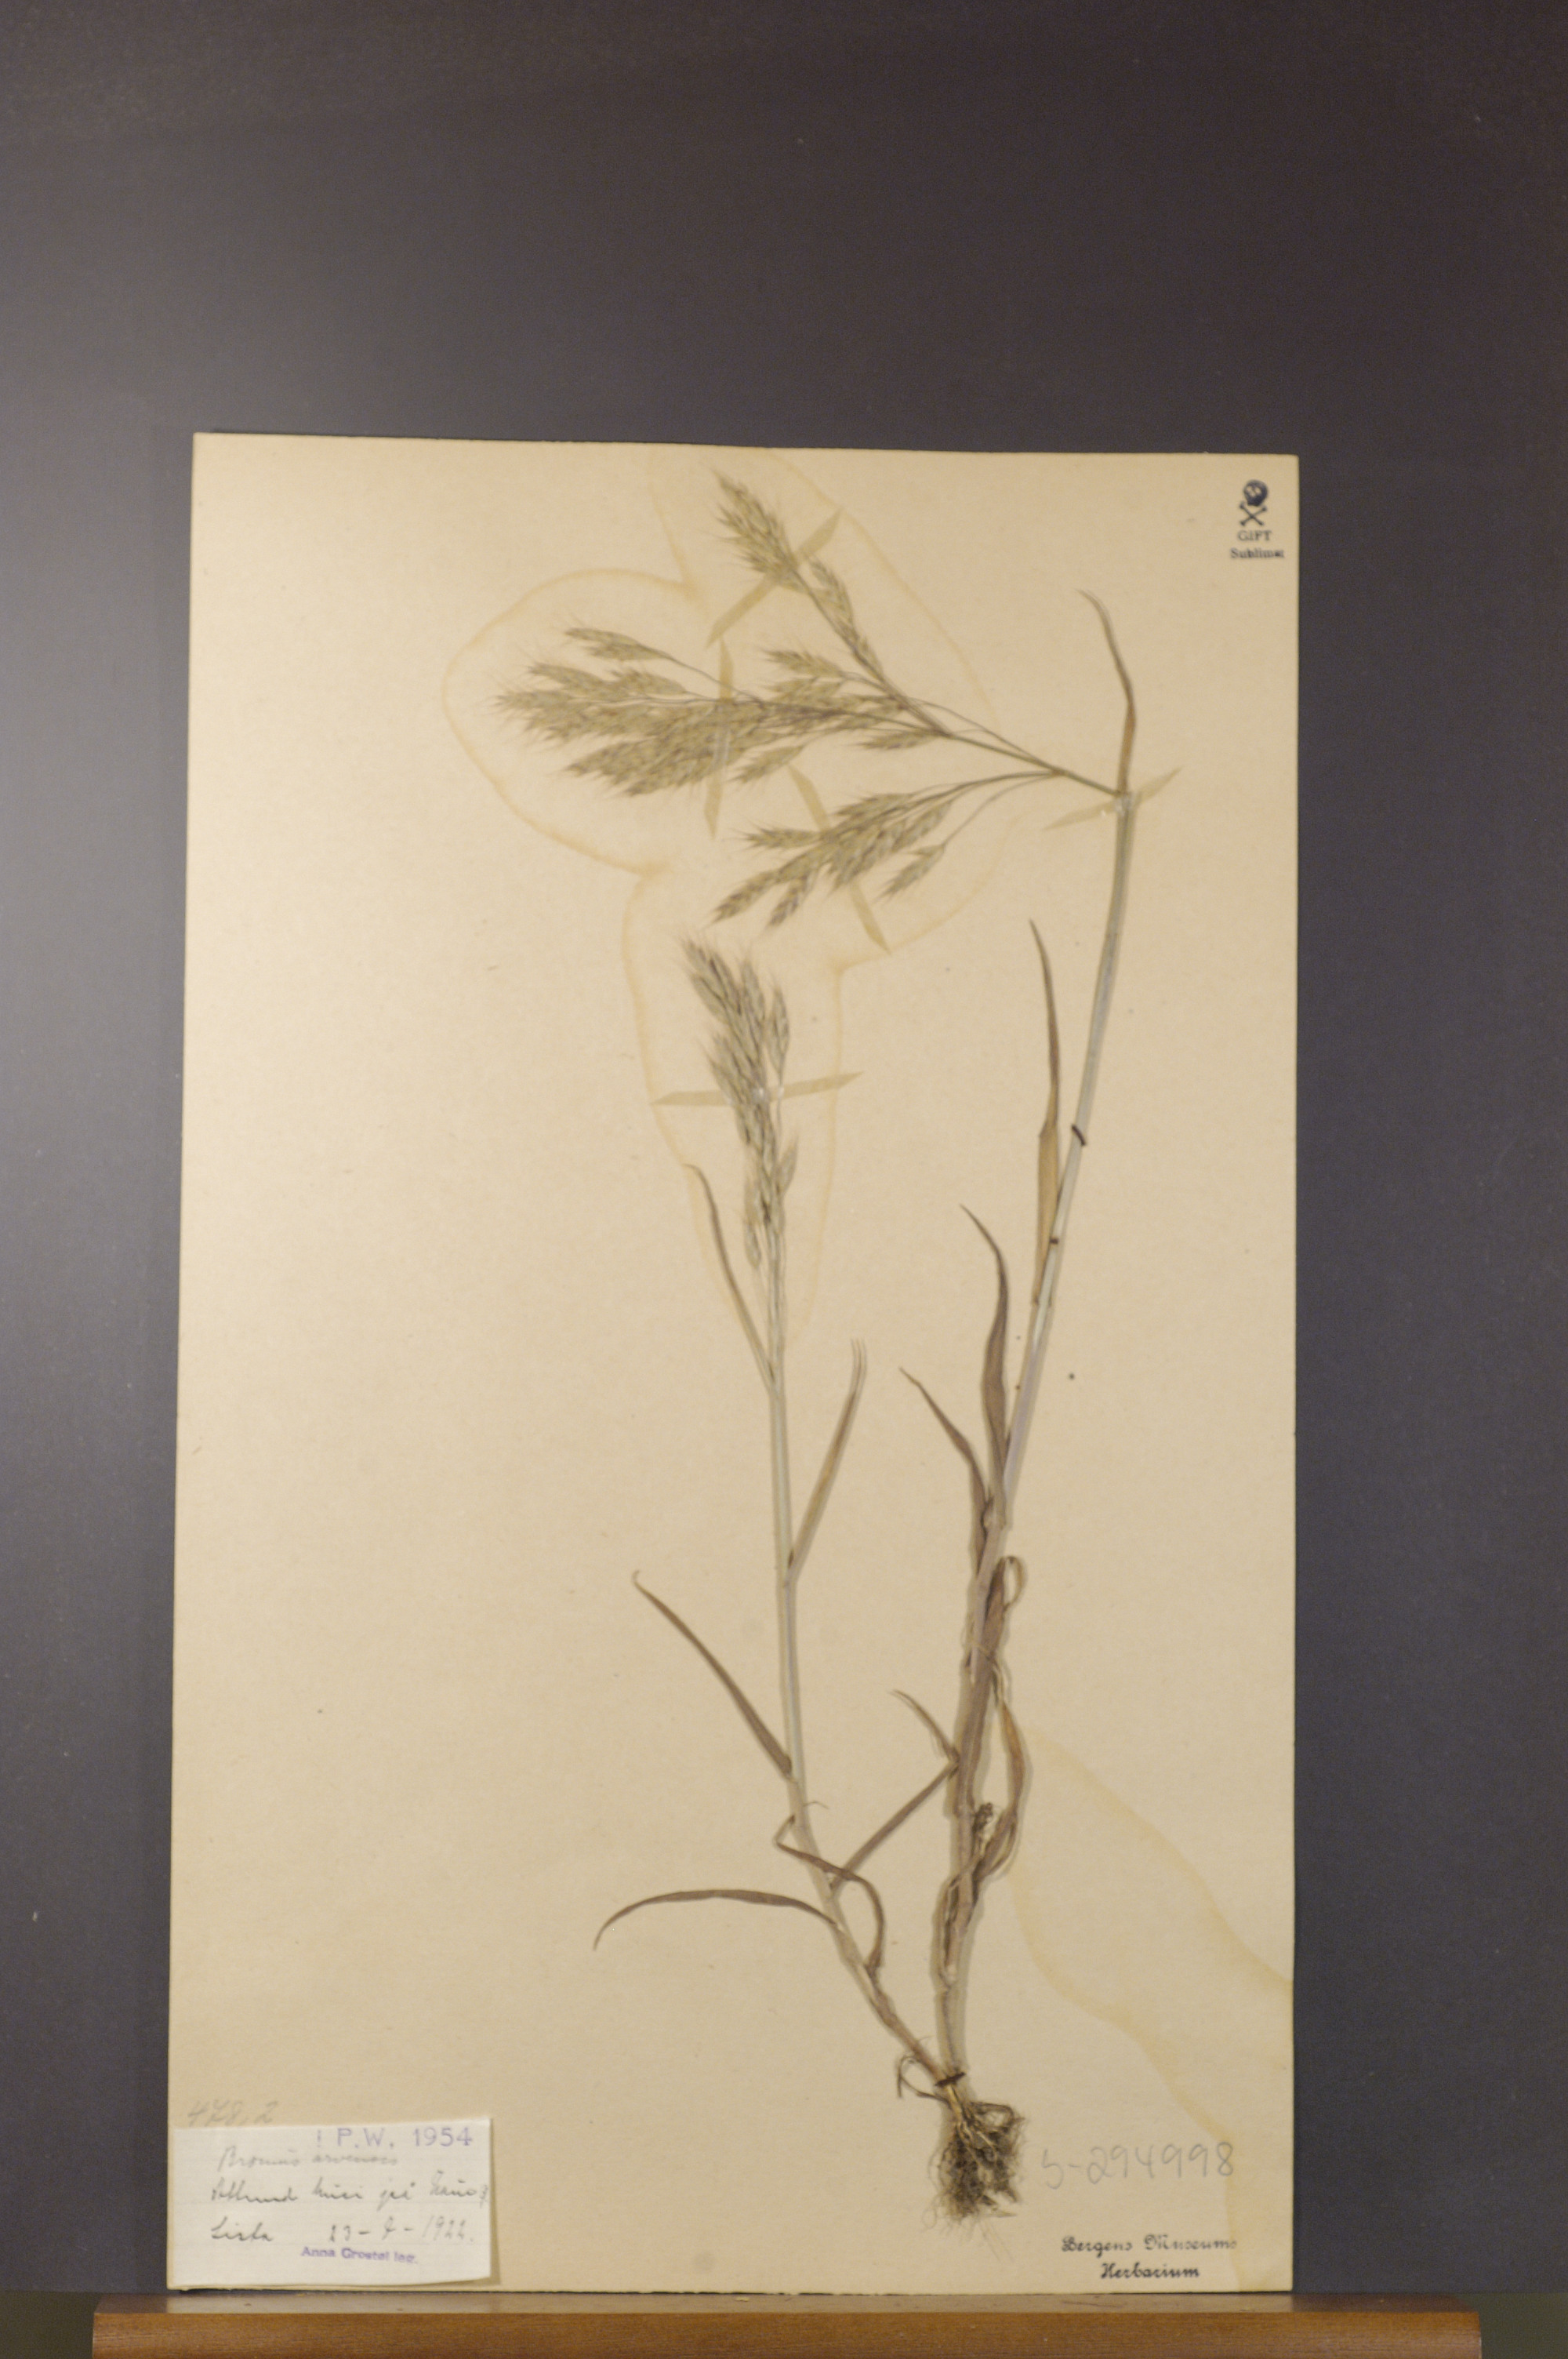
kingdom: Plantae
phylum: Tracheophyta
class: Liliopsida
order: Poales
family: Poaceae
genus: Bromus
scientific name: Bromus arvensis
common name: Field brome
